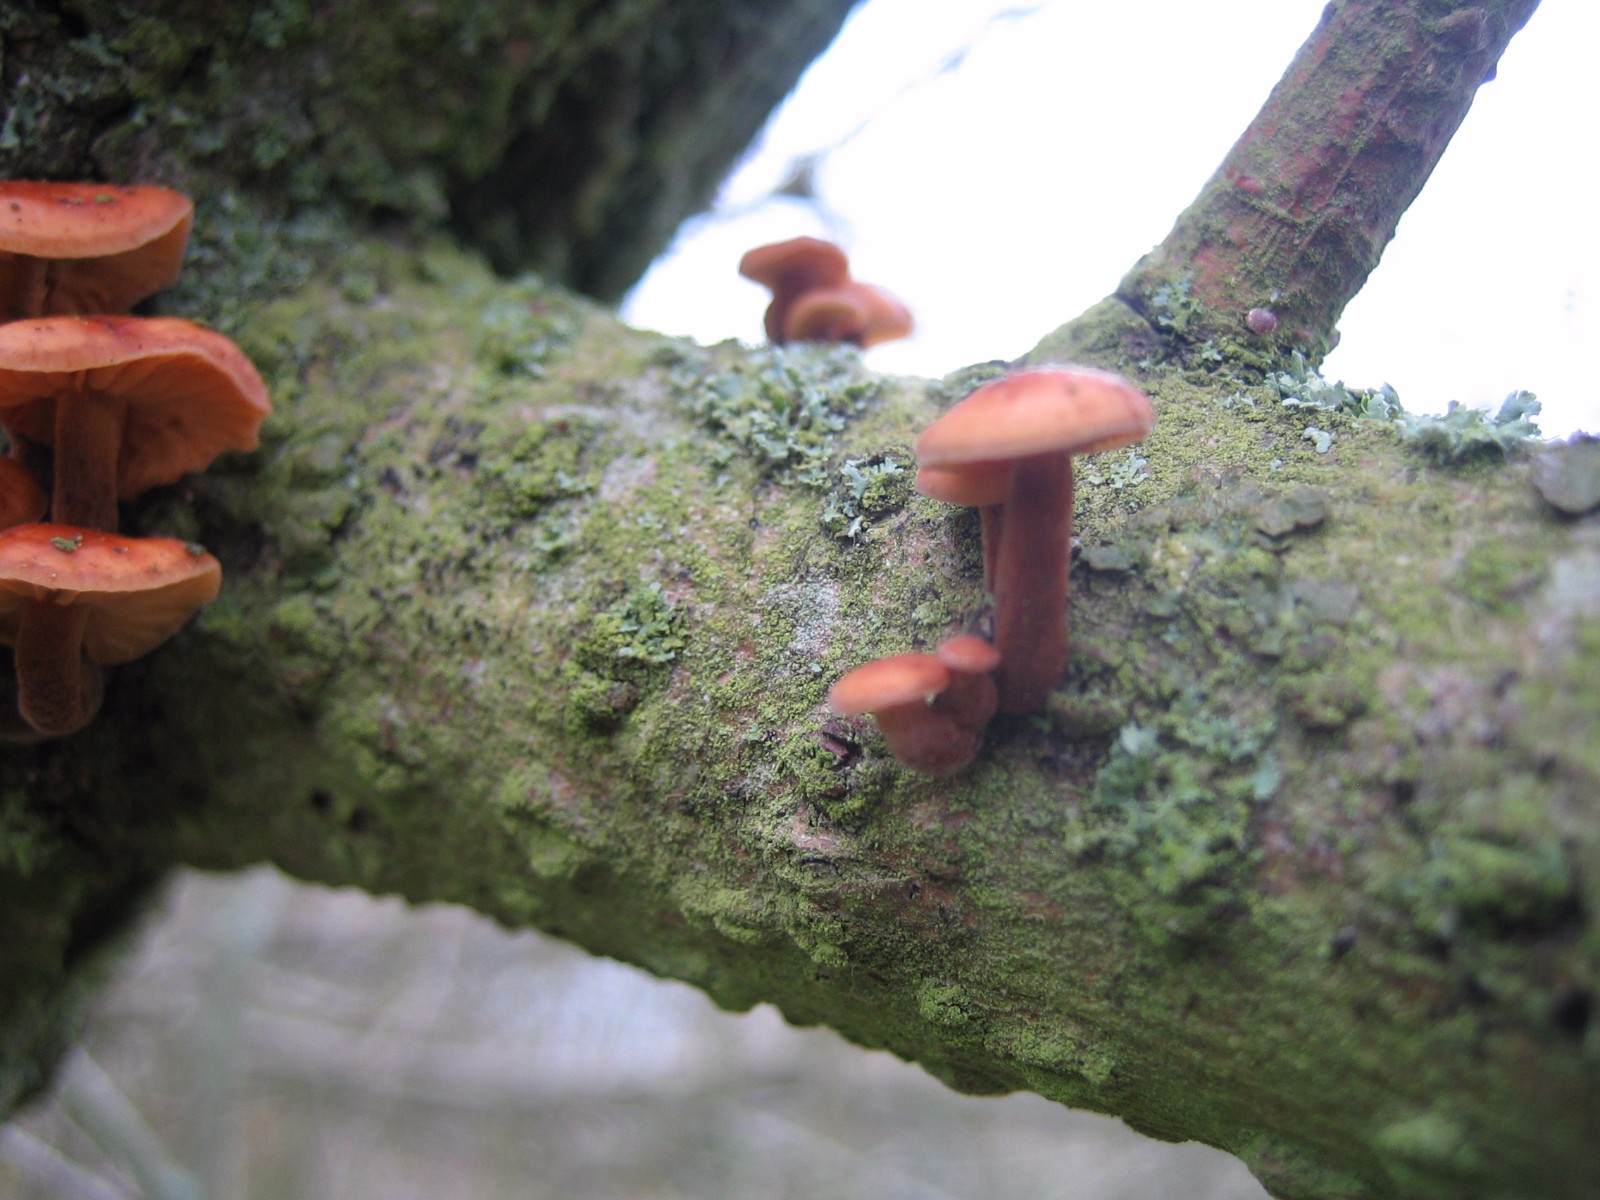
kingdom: Fungi
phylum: Basidiomycota
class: Agaricomycetes
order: Agaricales
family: Physalacriaceae
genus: Flammulina
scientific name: Flammulina
